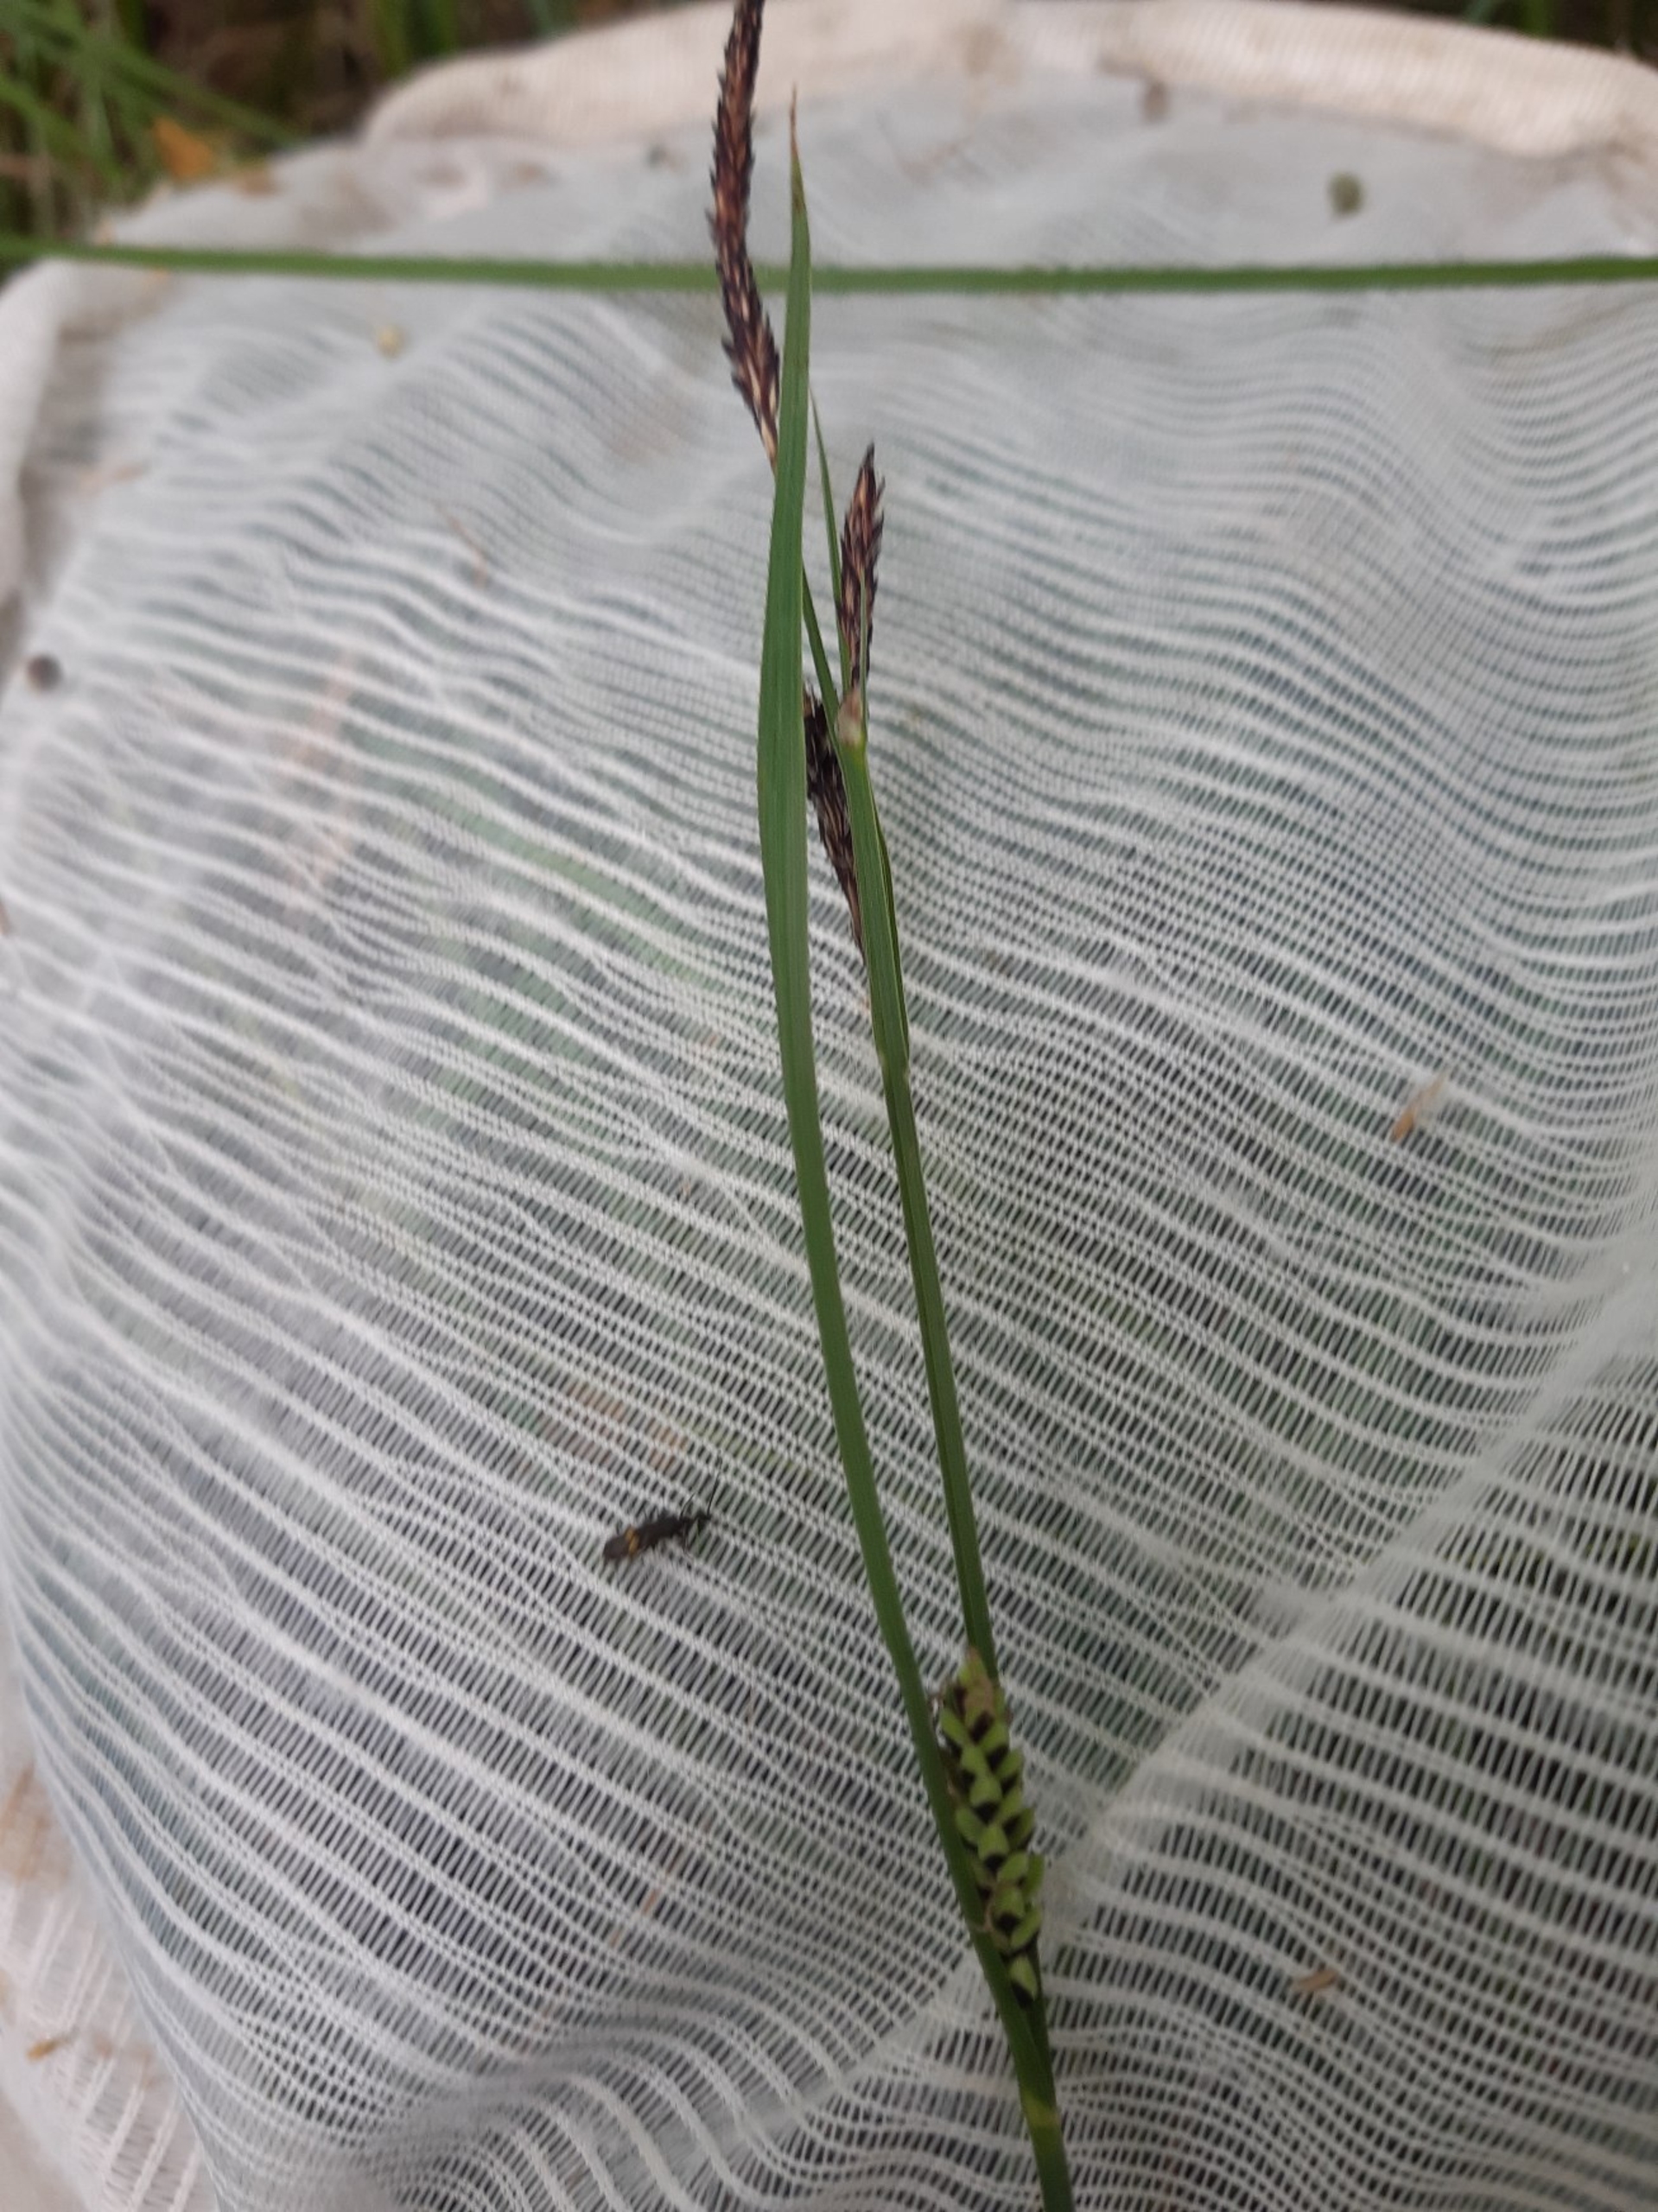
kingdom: Plantae
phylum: Tracheophyta
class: Liliopsida
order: Poales
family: Cyperaceae
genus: Carex
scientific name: Carex nigra
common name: Almindelig star (varietet)
